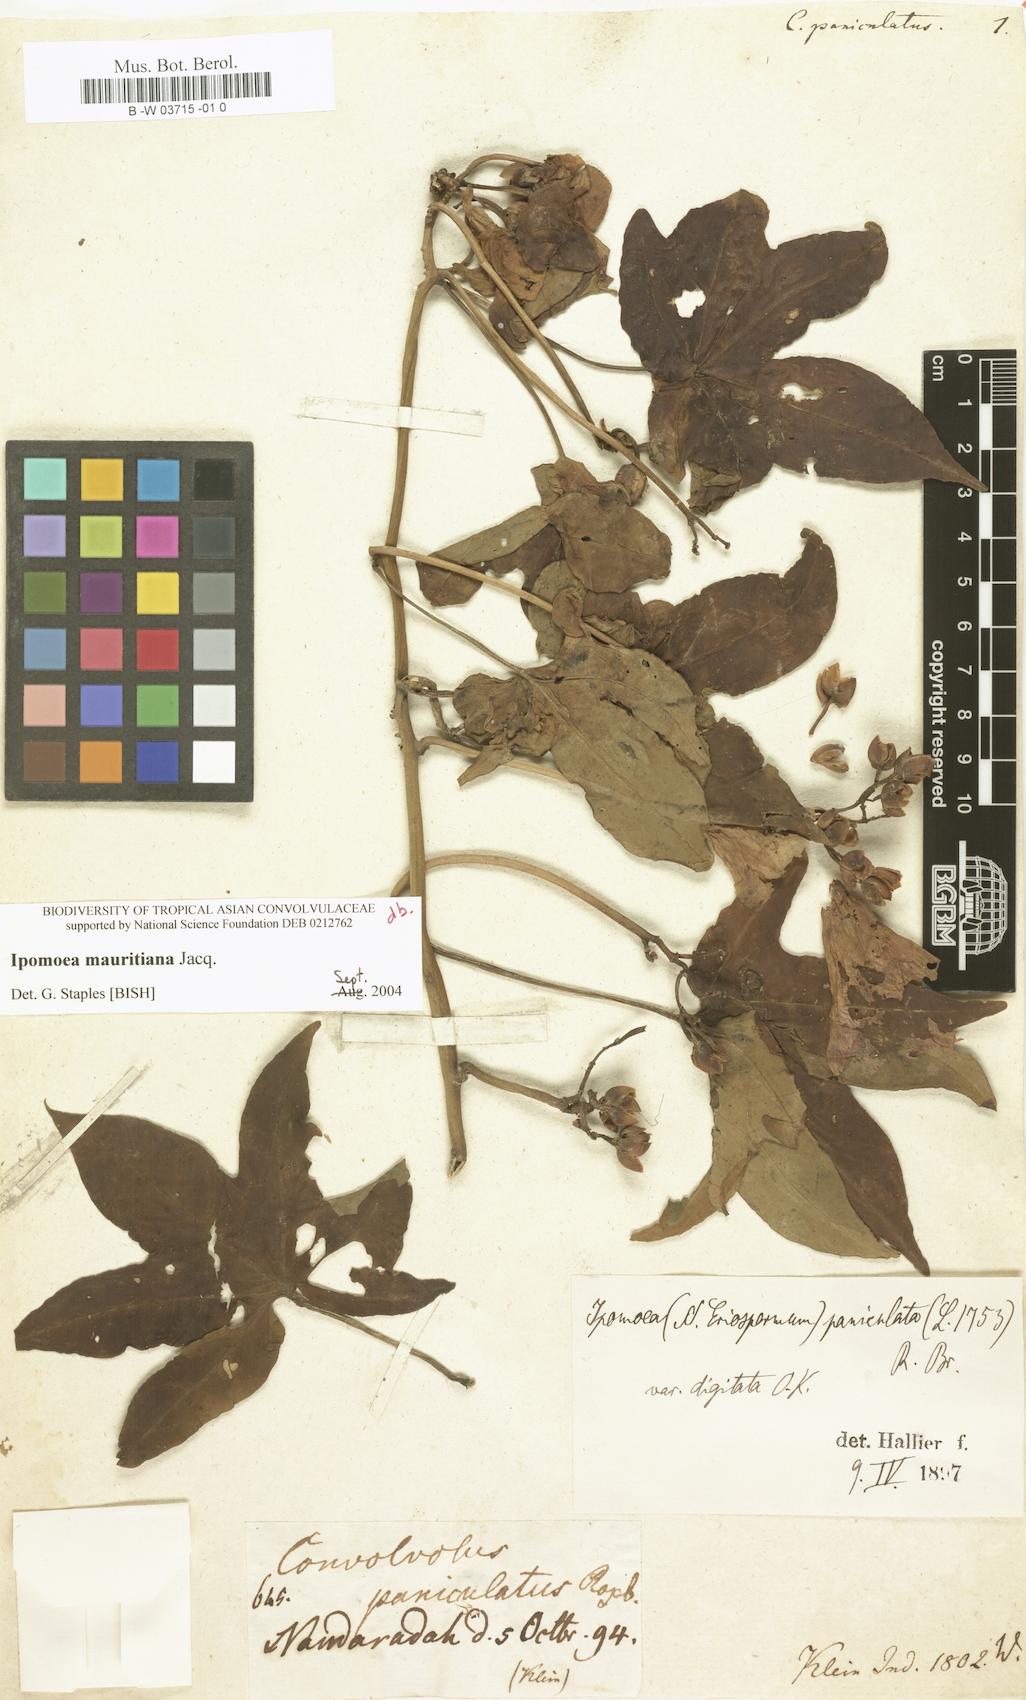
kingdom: Plantae
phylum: Tracheophyta
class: Magnoliopsida
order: Solanales
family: Convolvulaceae
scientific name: Convolvulaceae
